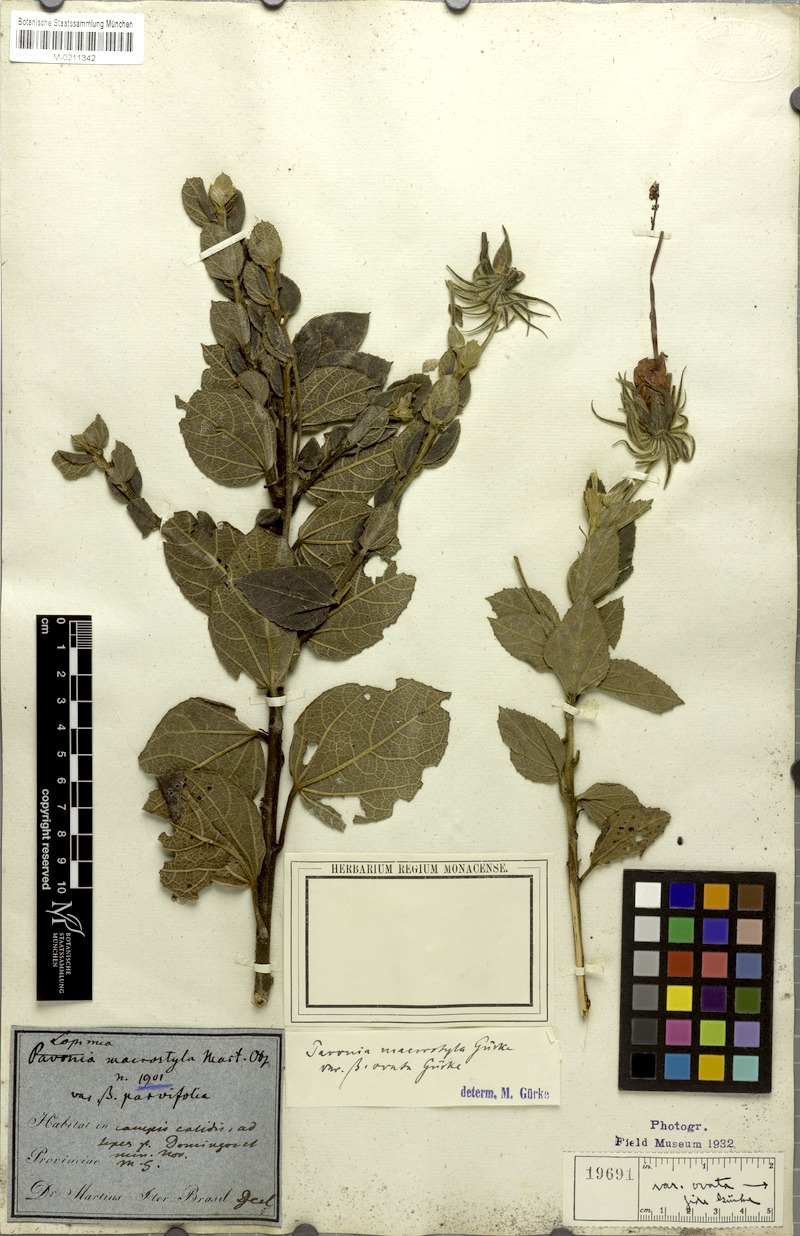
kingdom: Plantae
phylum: Tracheophyta
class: Magnoliopsida
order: Malvales
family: Malvaceae
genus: Pavonia
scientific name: Pavonia macrostyla
